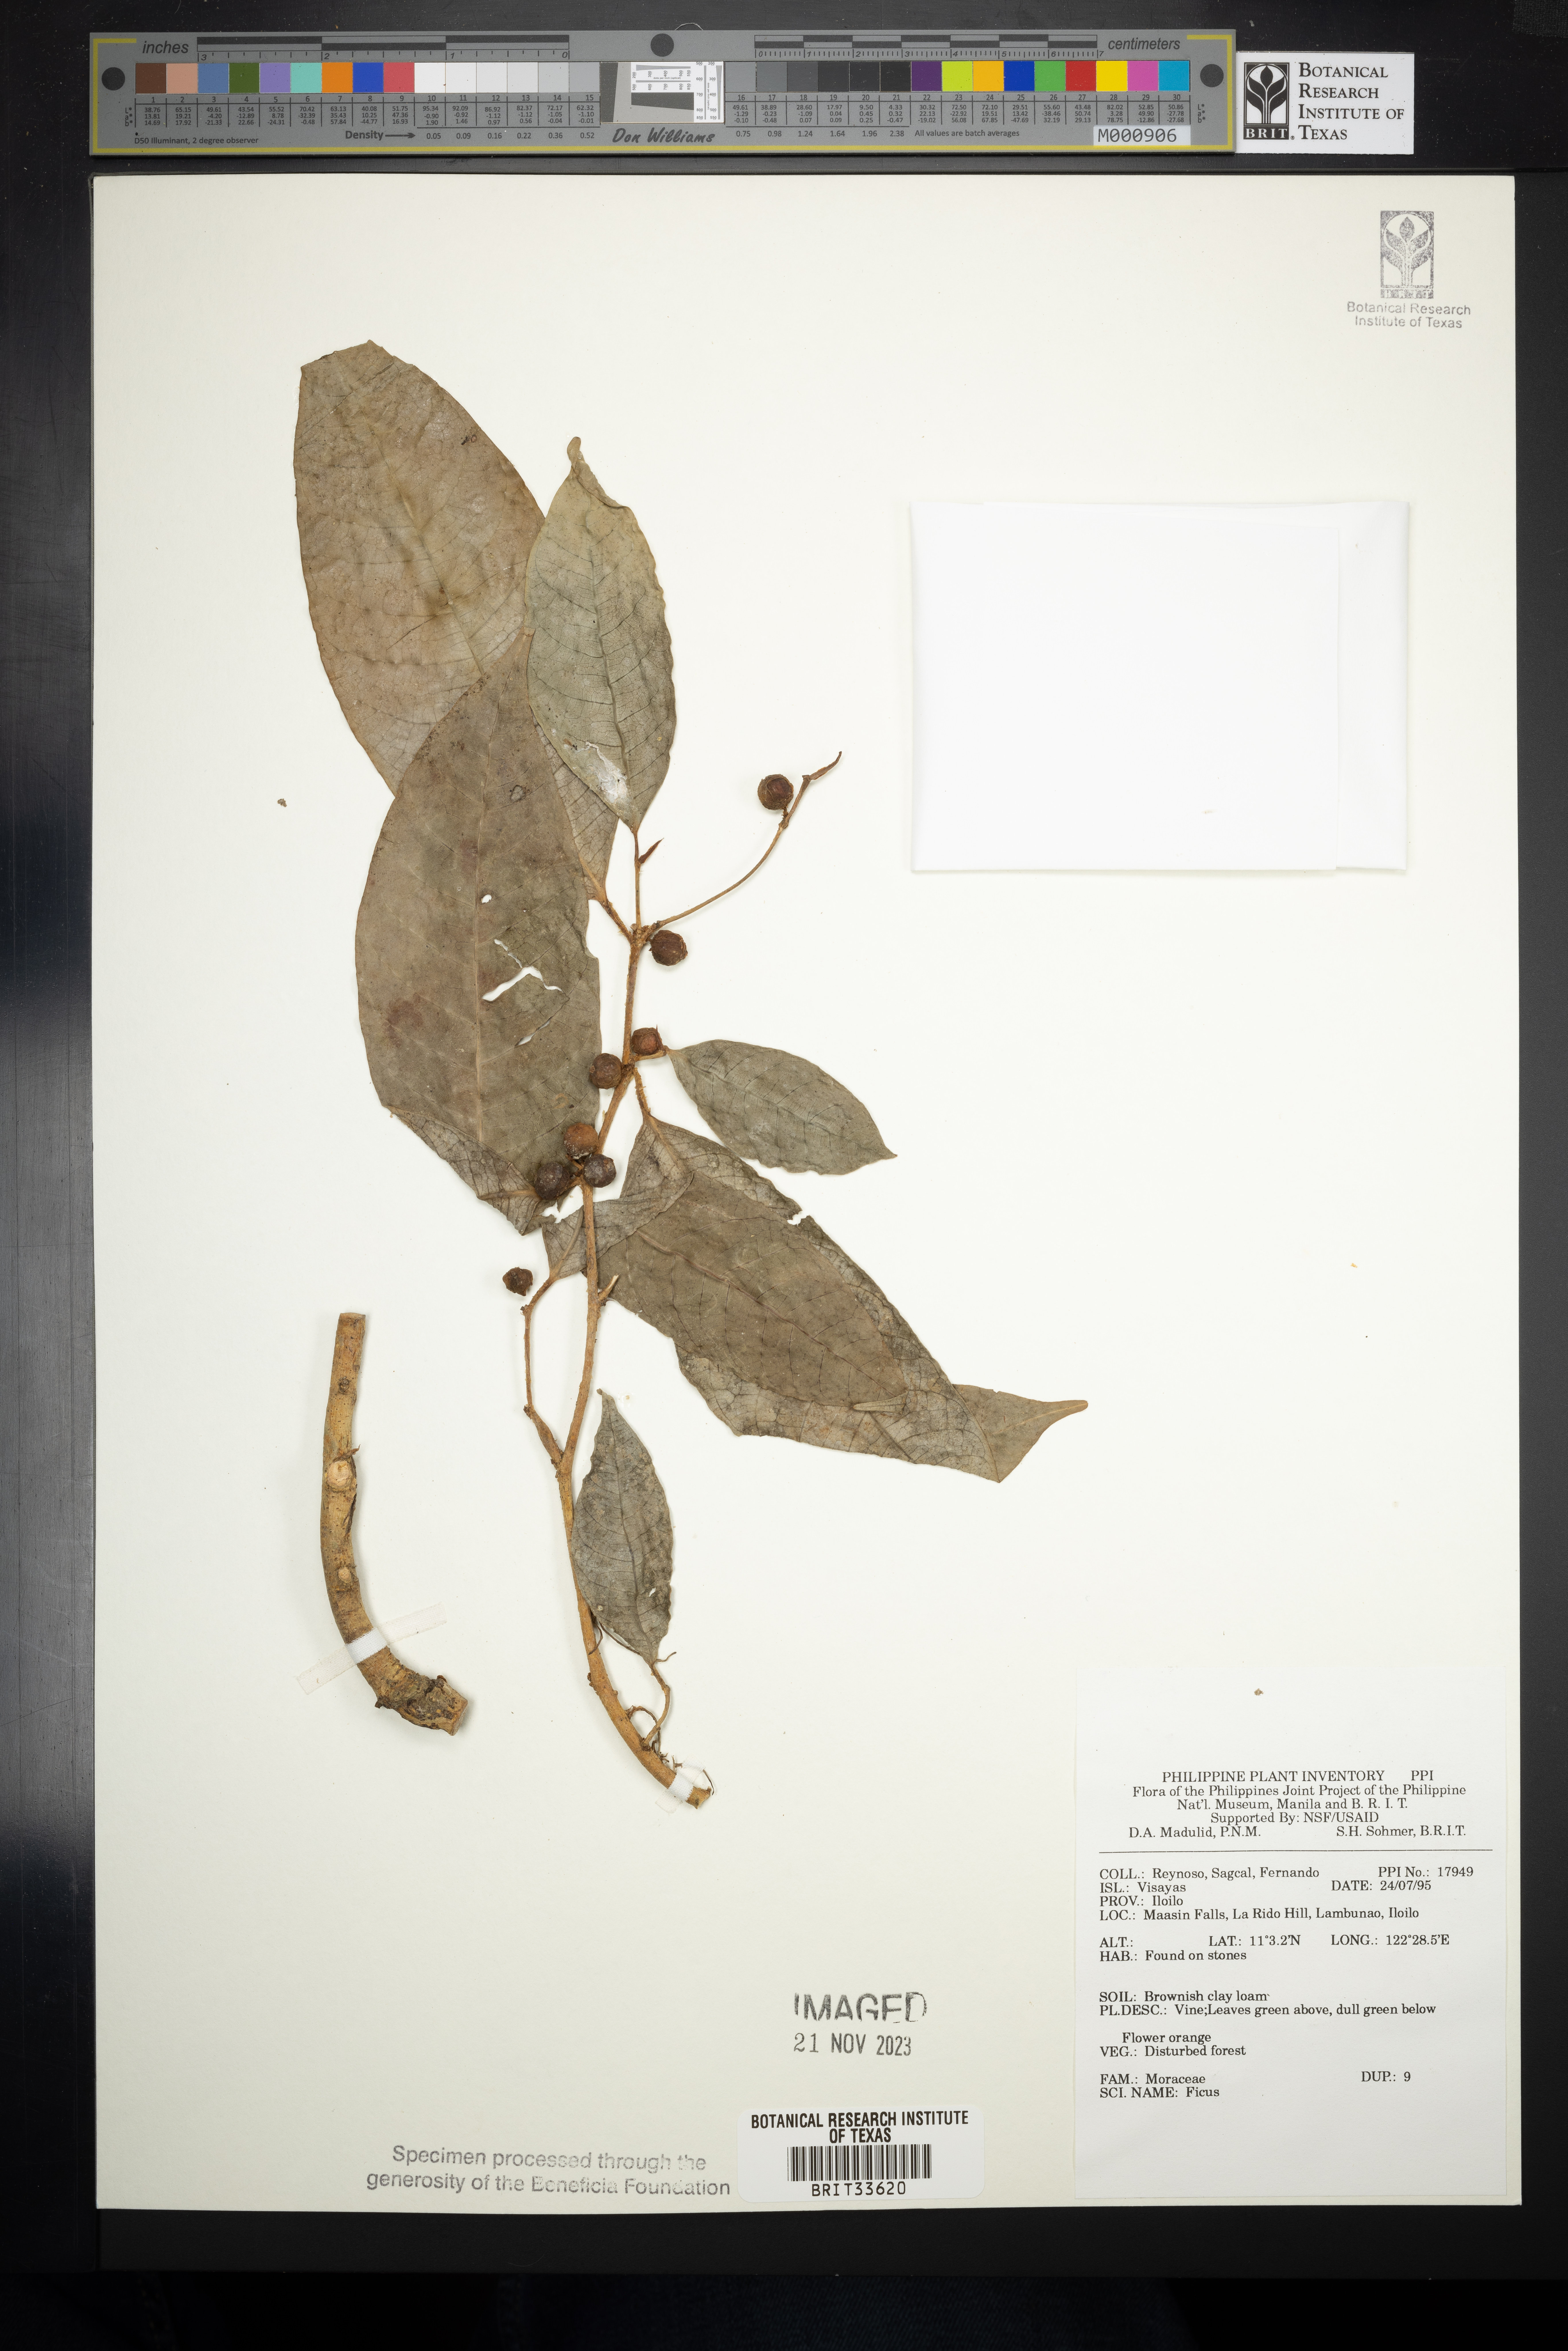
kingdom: Plantae
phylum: Tracheophyta
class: Magnoliopsida
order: Rosales
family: Moraceae
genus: Ficus
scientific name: Ficus
